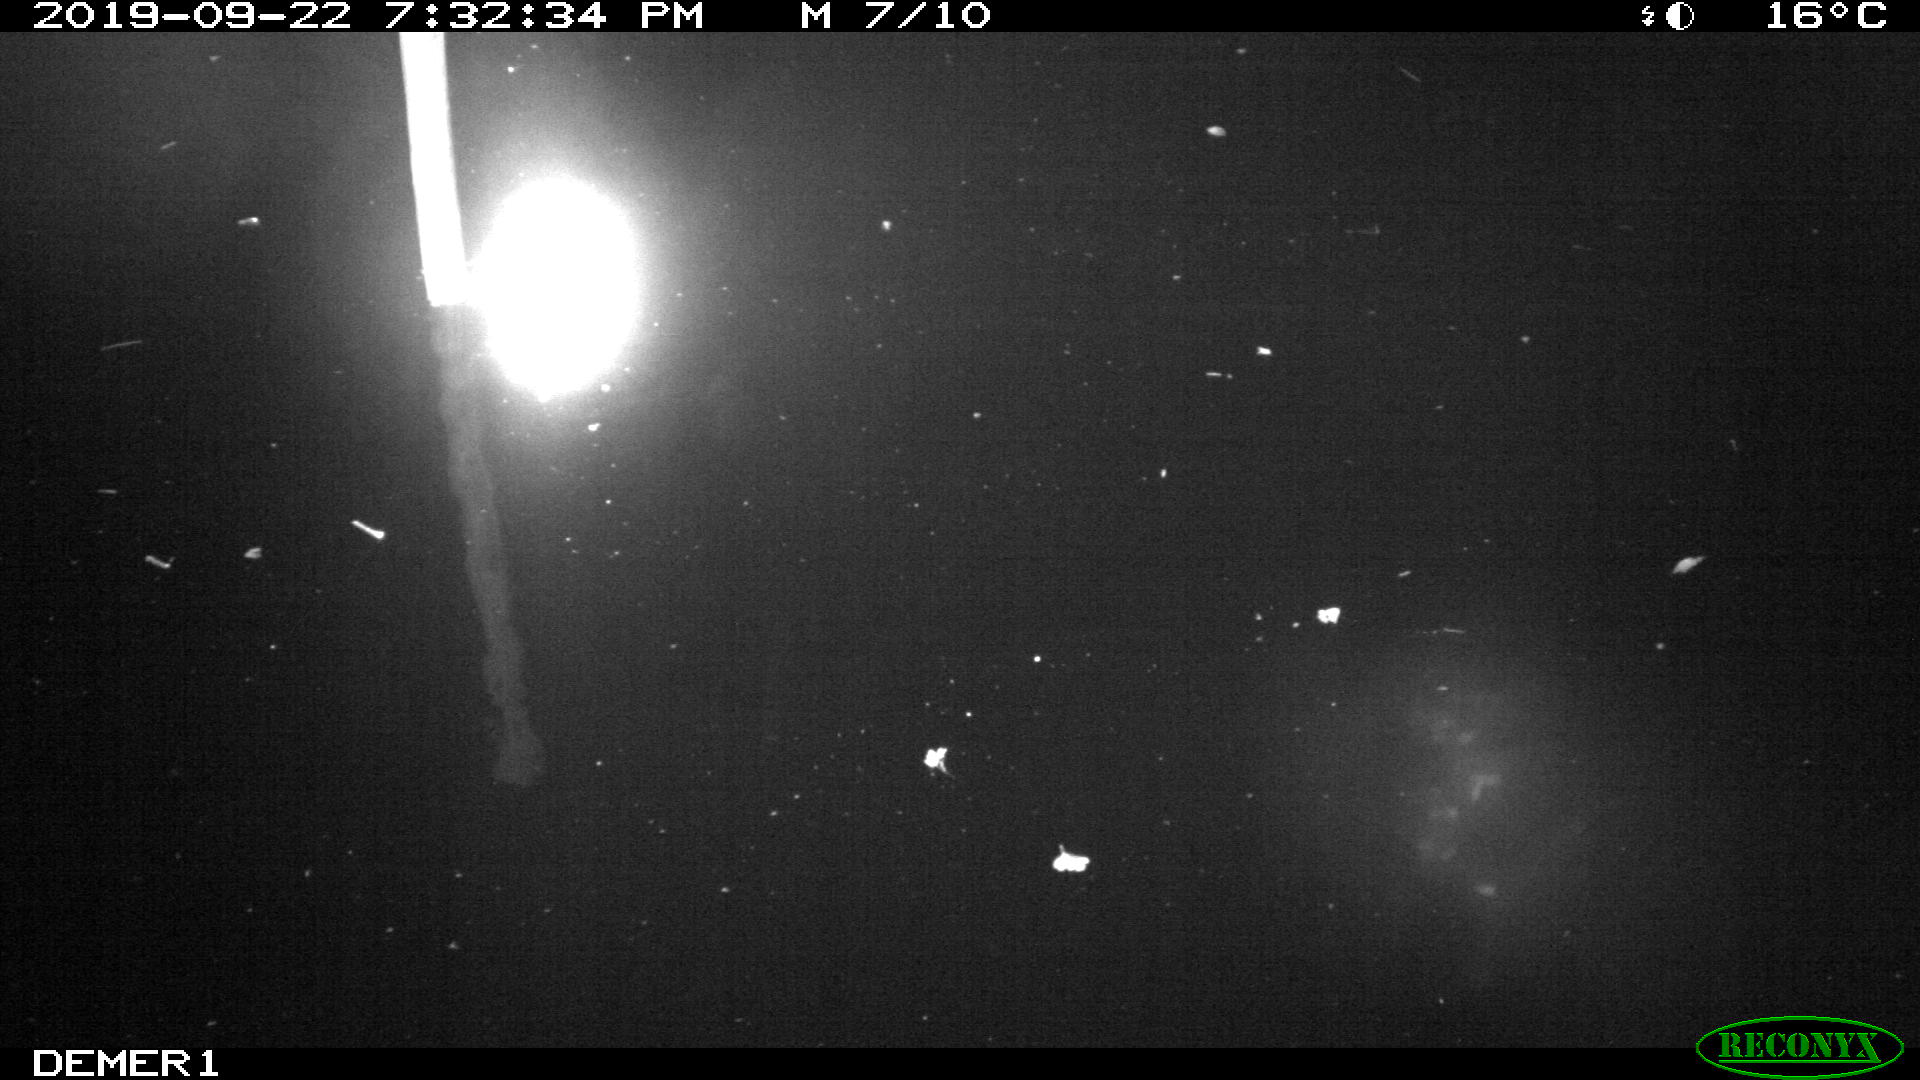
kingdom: Animalia
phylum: Chordata
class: Aves
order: Anseriformes
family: Anatidae
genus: Anas
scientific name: Anas platyrhynchos
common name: Mallard
